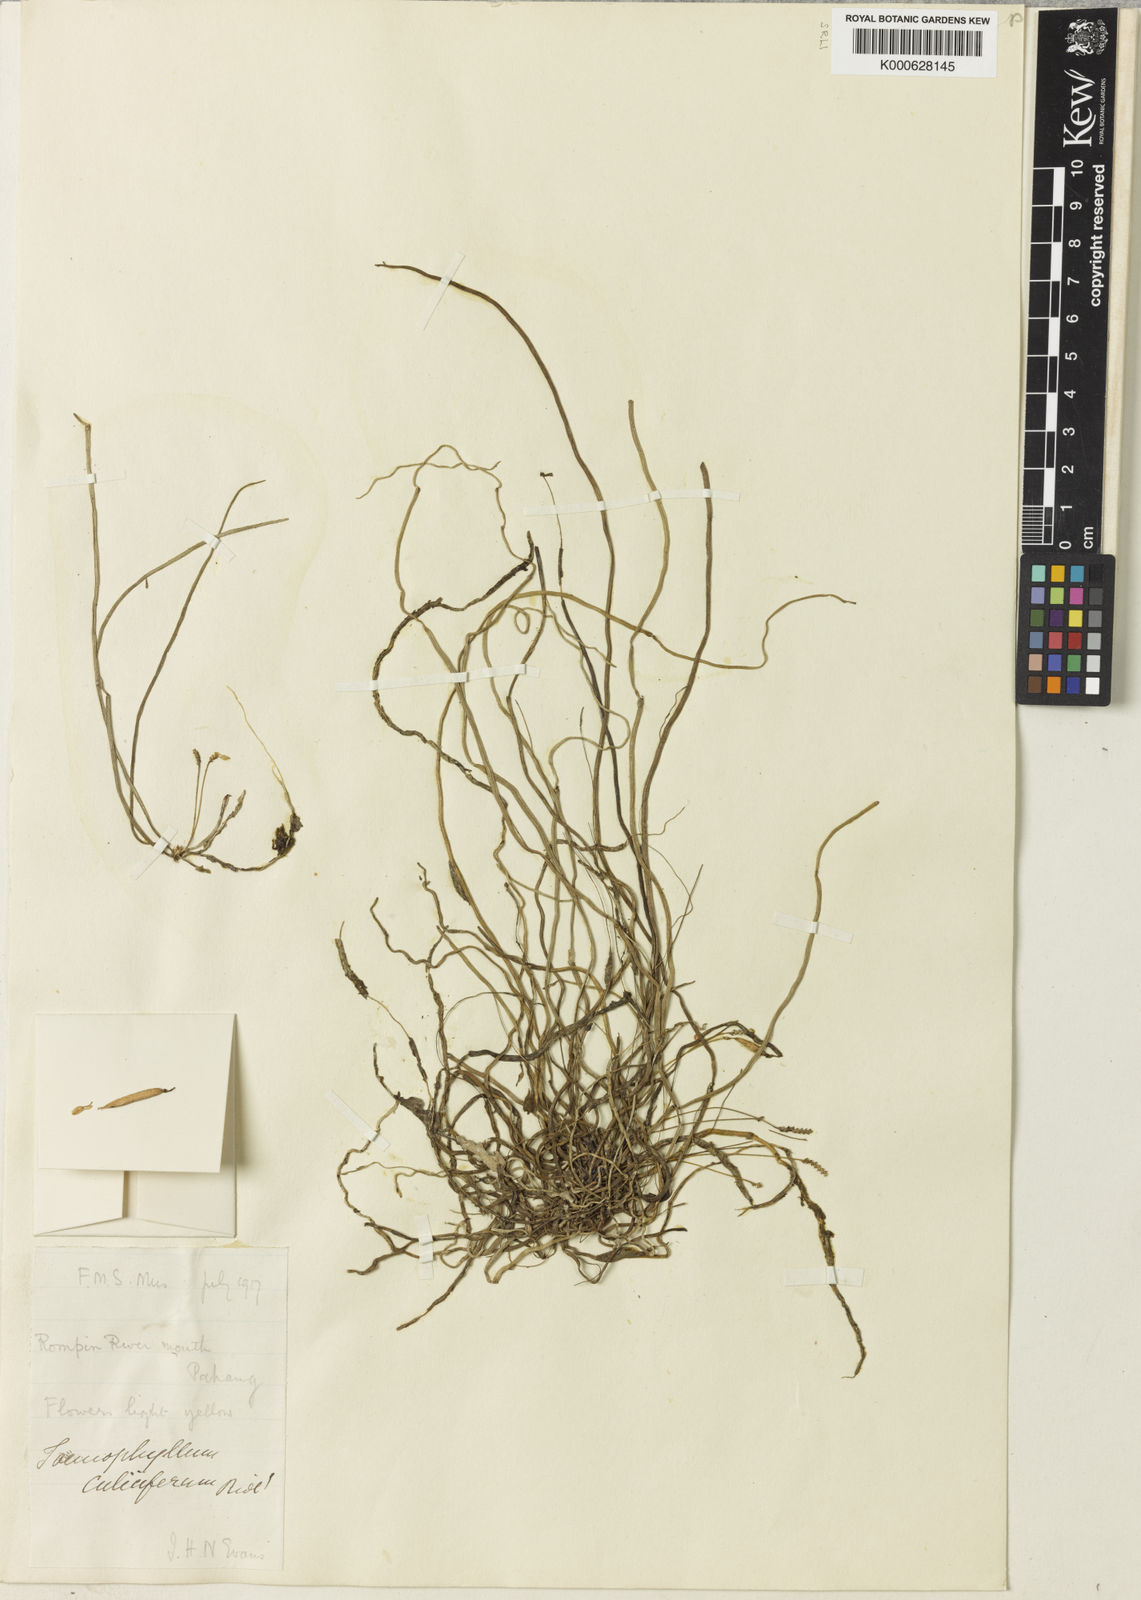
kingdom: Plantae
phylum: Tracheophyta
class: Liliopsida
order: Asparagales
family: Orchidaceae
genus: Taeniophyllum
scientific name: Taeniophyllum gracillimum
